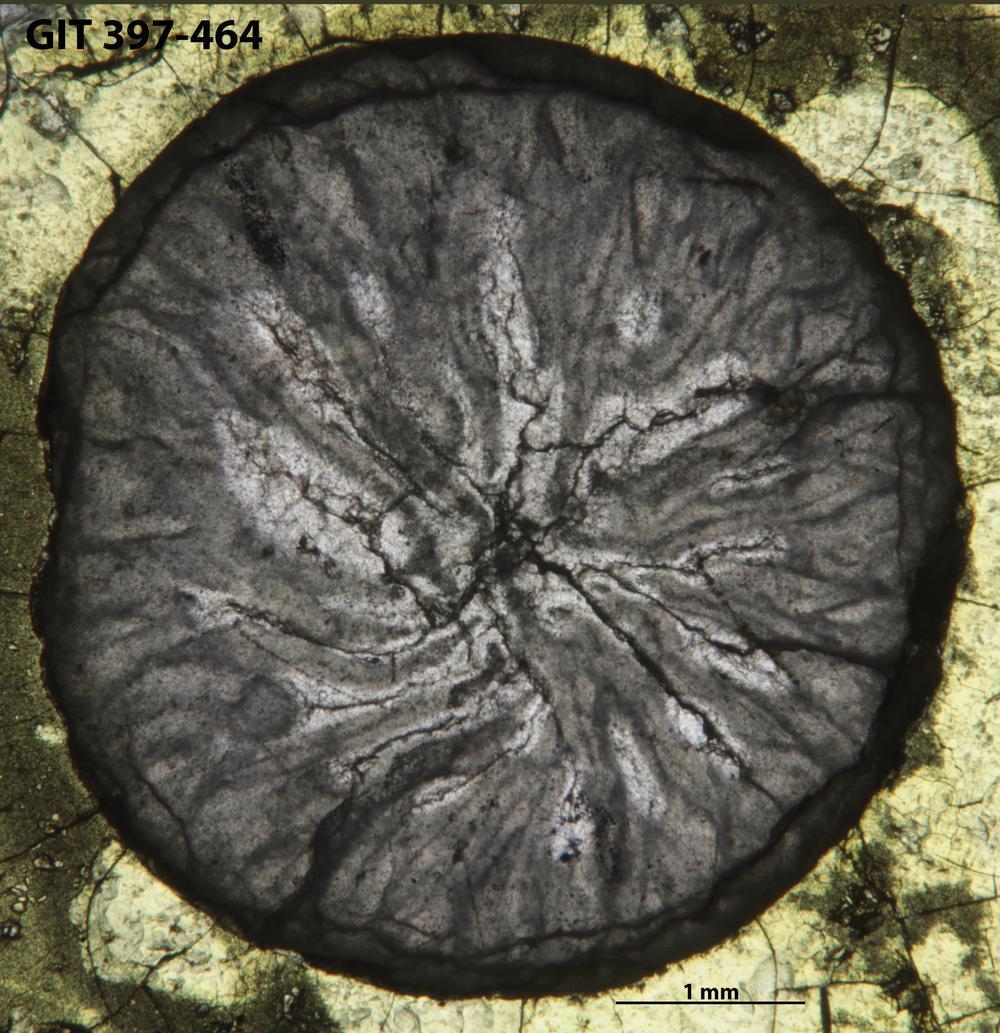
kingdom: Animalia
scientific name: Animalia
